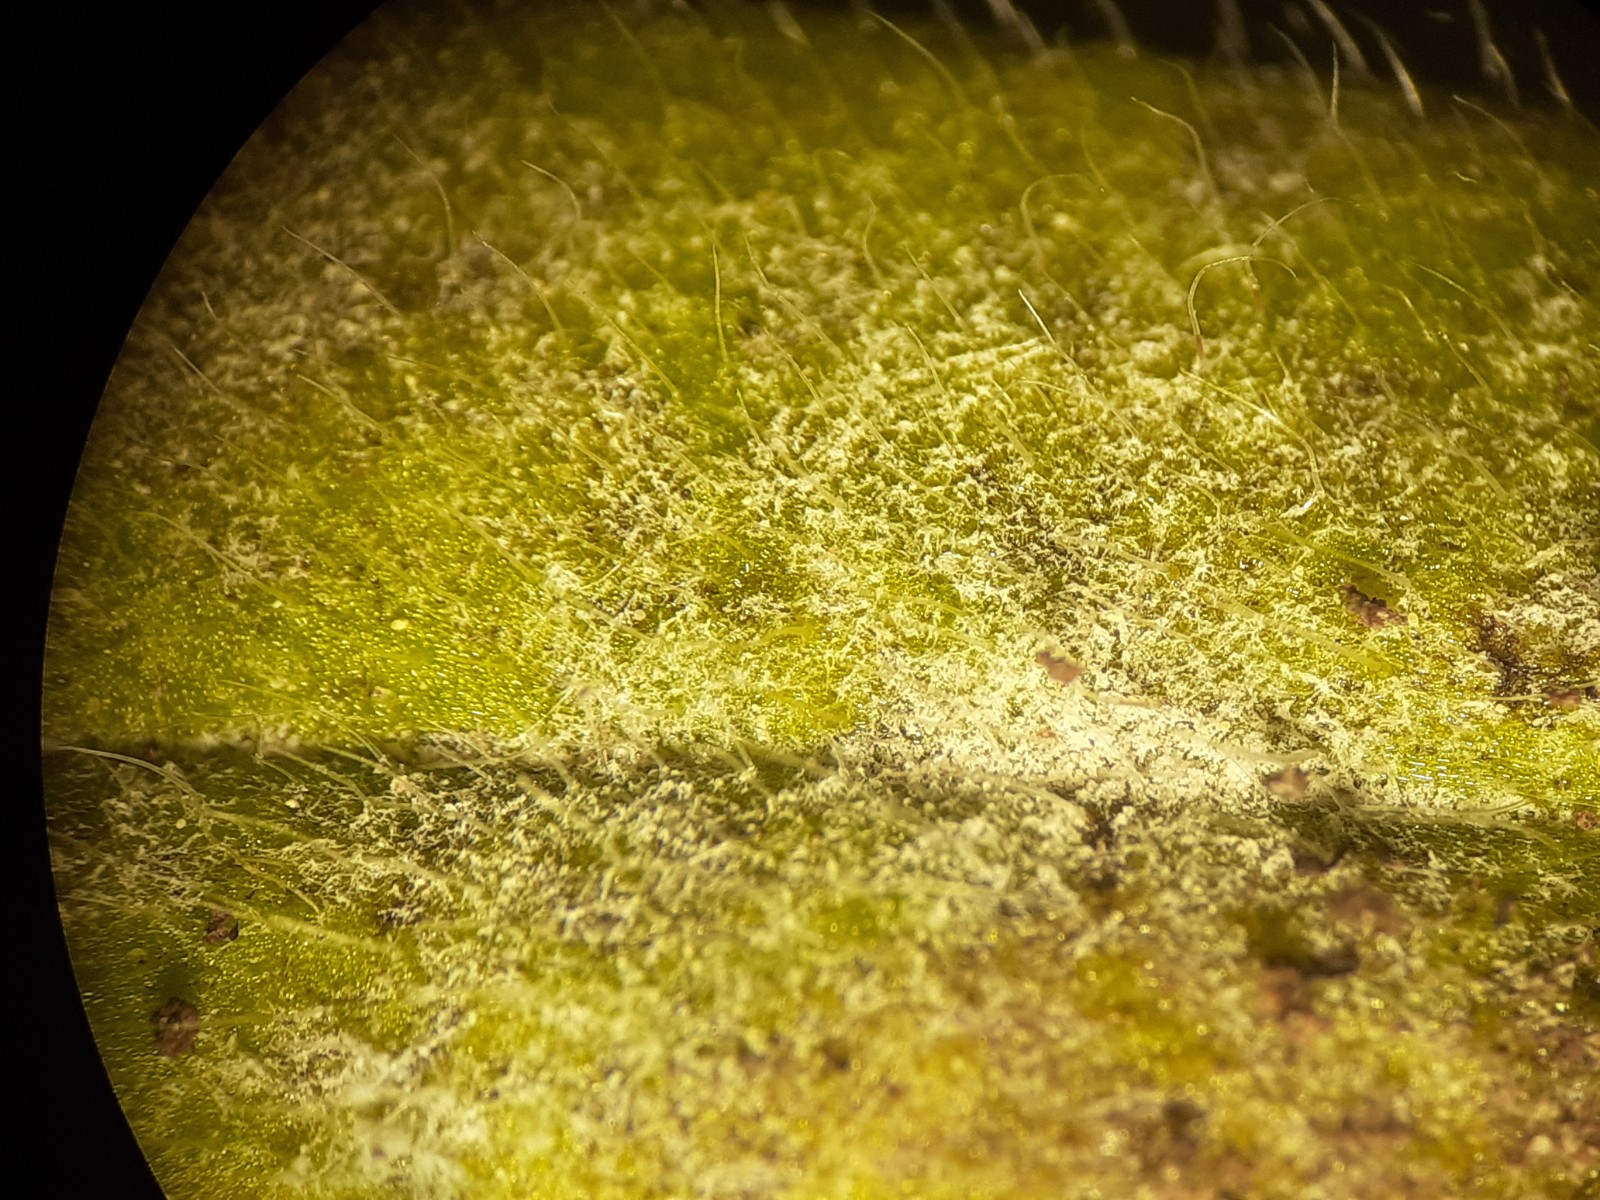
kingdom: Chromista
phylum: Oomycota
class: Peronosporea
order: Peronosporales
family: Peronosporaceae
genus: Peronospora
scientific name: Peronospora myosotidis
